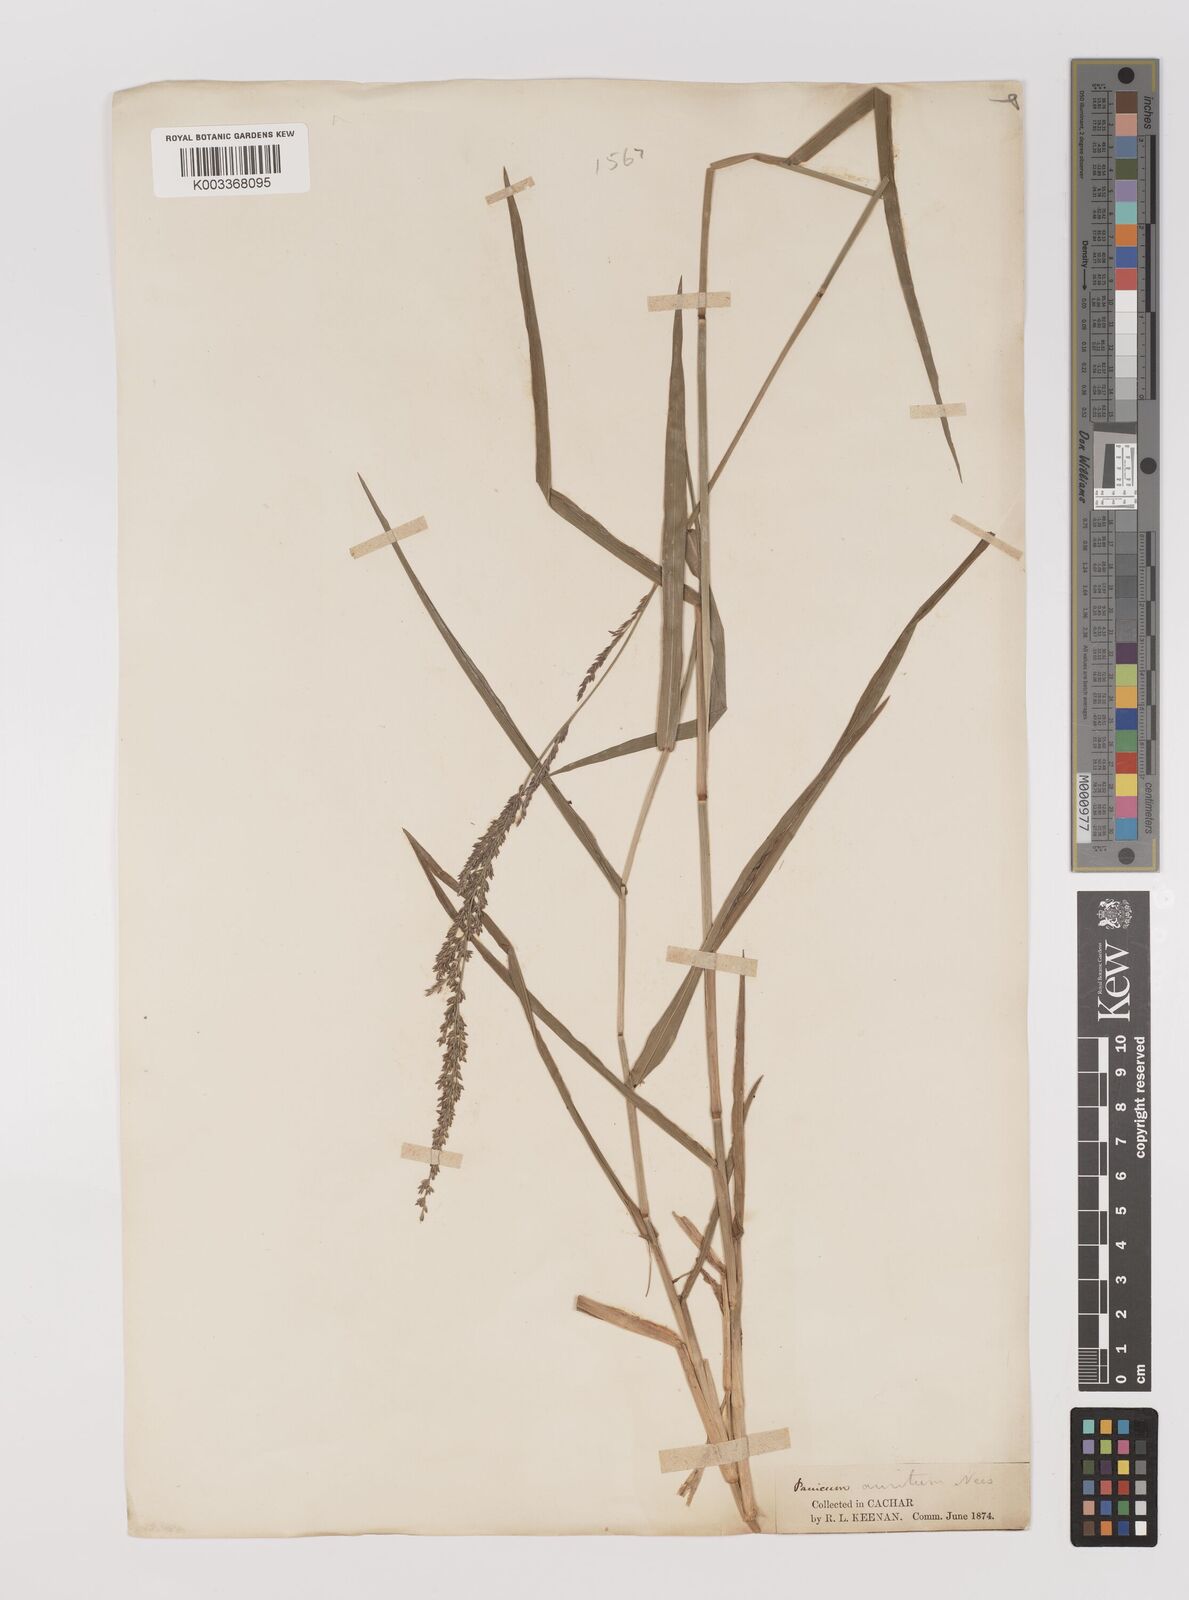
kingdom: Plantae
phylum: Tracheophyta
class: Liliopsida
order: Poales
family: Poaceae
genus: Hymenachne
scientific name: Hymenachne aurita
